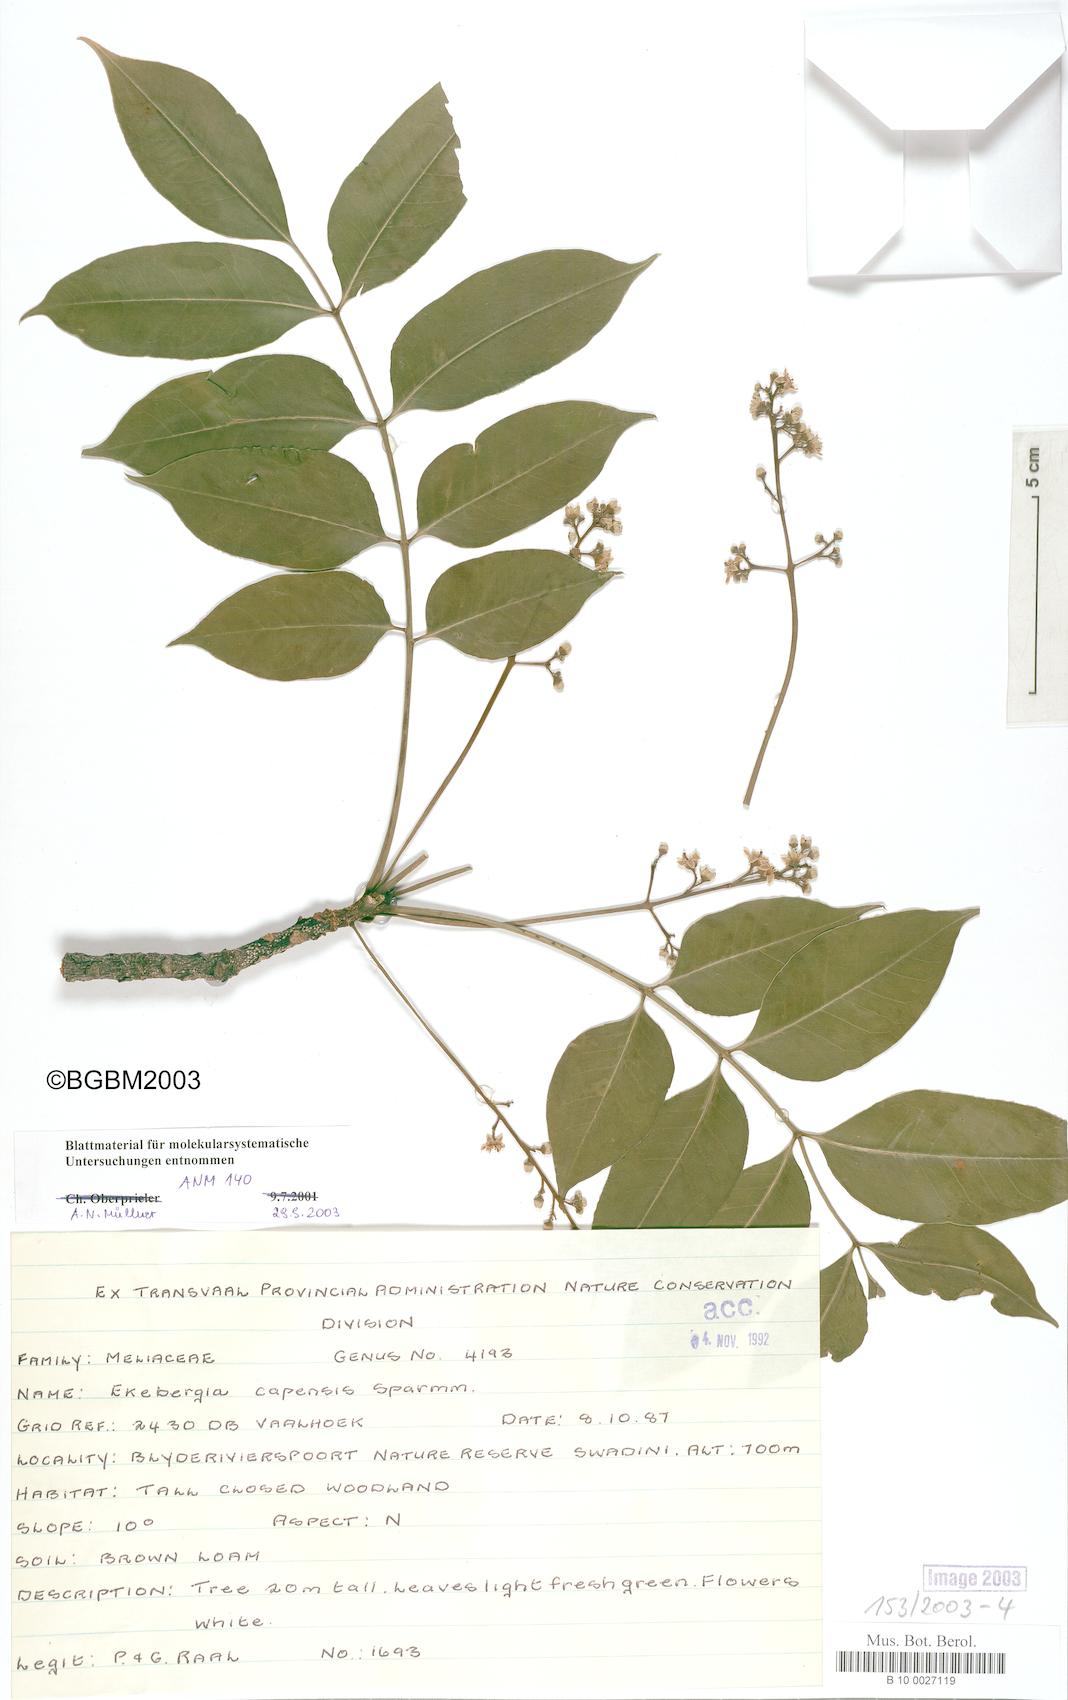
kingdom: Plantae
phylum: Tracheophyta
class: Magnoliopsida
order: Sapindales
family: Meliaceae
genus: Ekebergia
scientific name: Ekebergia capensis
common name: Cape-ash
